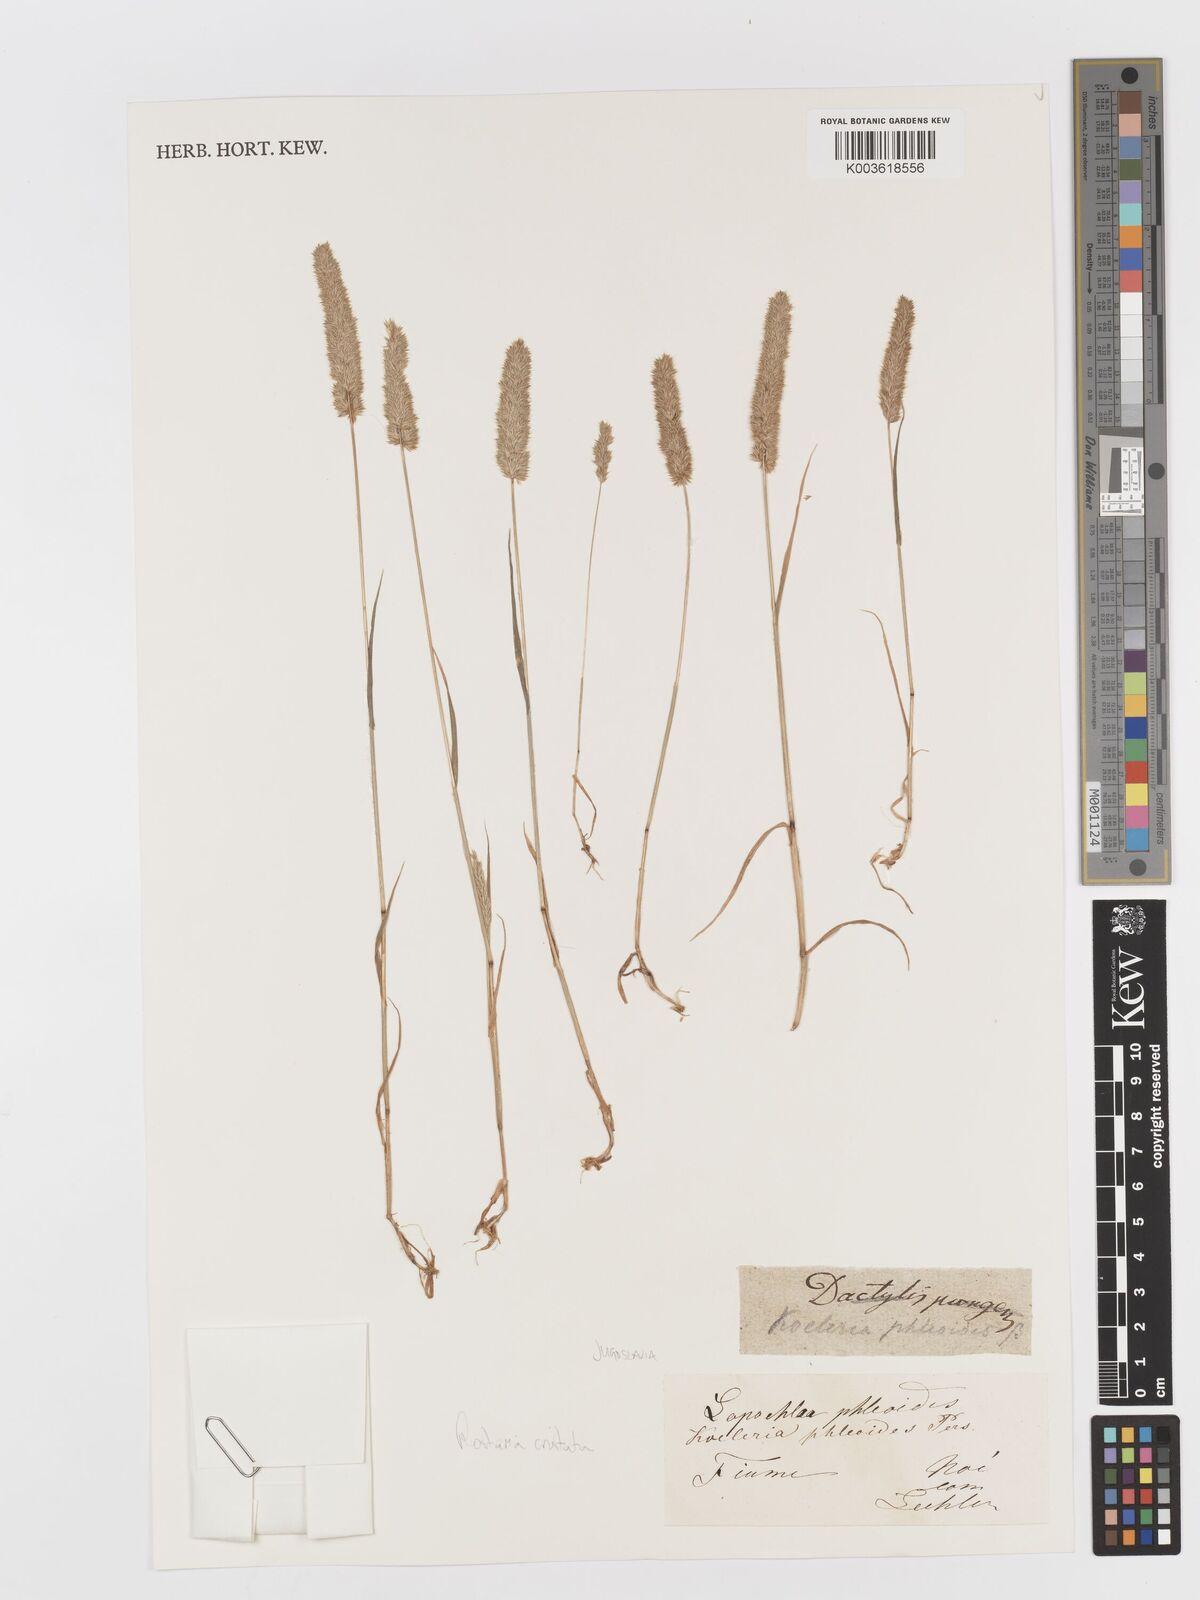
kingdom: Plantae
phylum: Tracheophyta
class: Liliopsida
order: Poales
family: Poaceae
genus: Rostraria
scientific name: Rostraria cristata
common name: Mediterranean hair-grass
